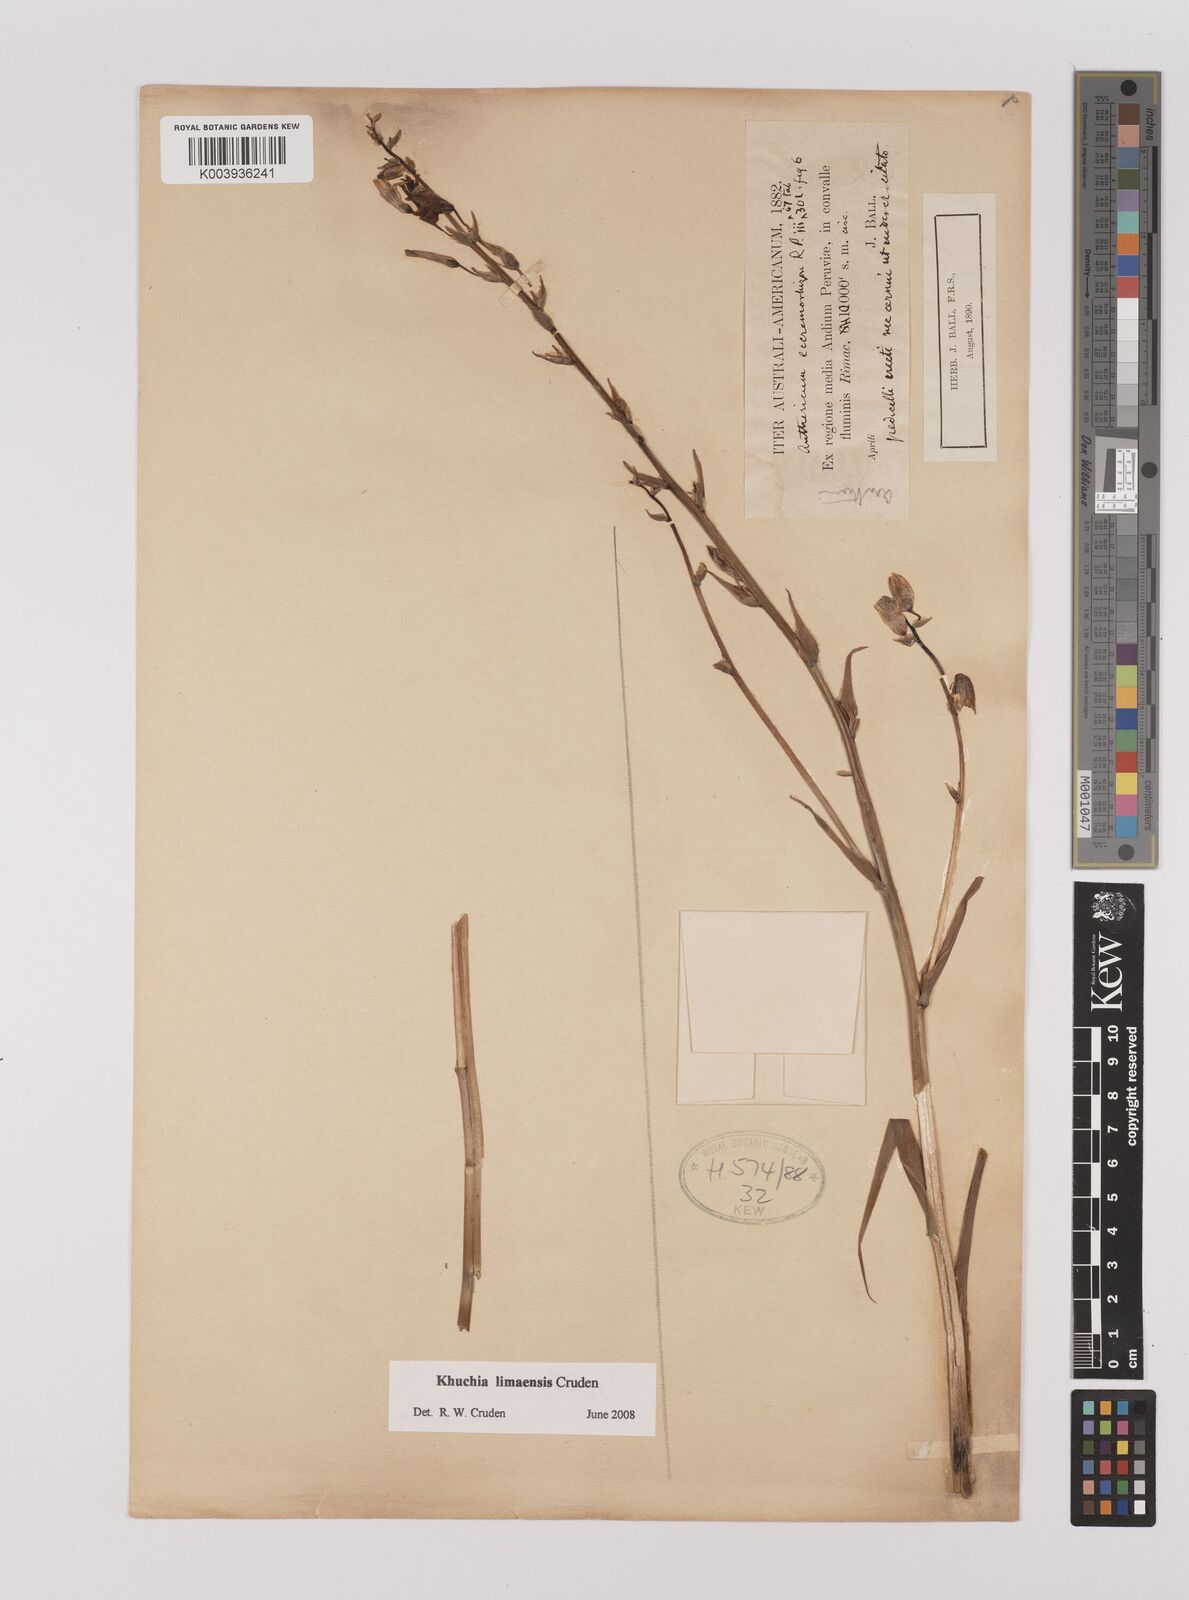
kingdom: Plantae
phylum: Tracheophyta
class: Liliopsida
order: Asparagales
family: Asparagaceae
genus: Echeandia
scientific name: Echeandia
